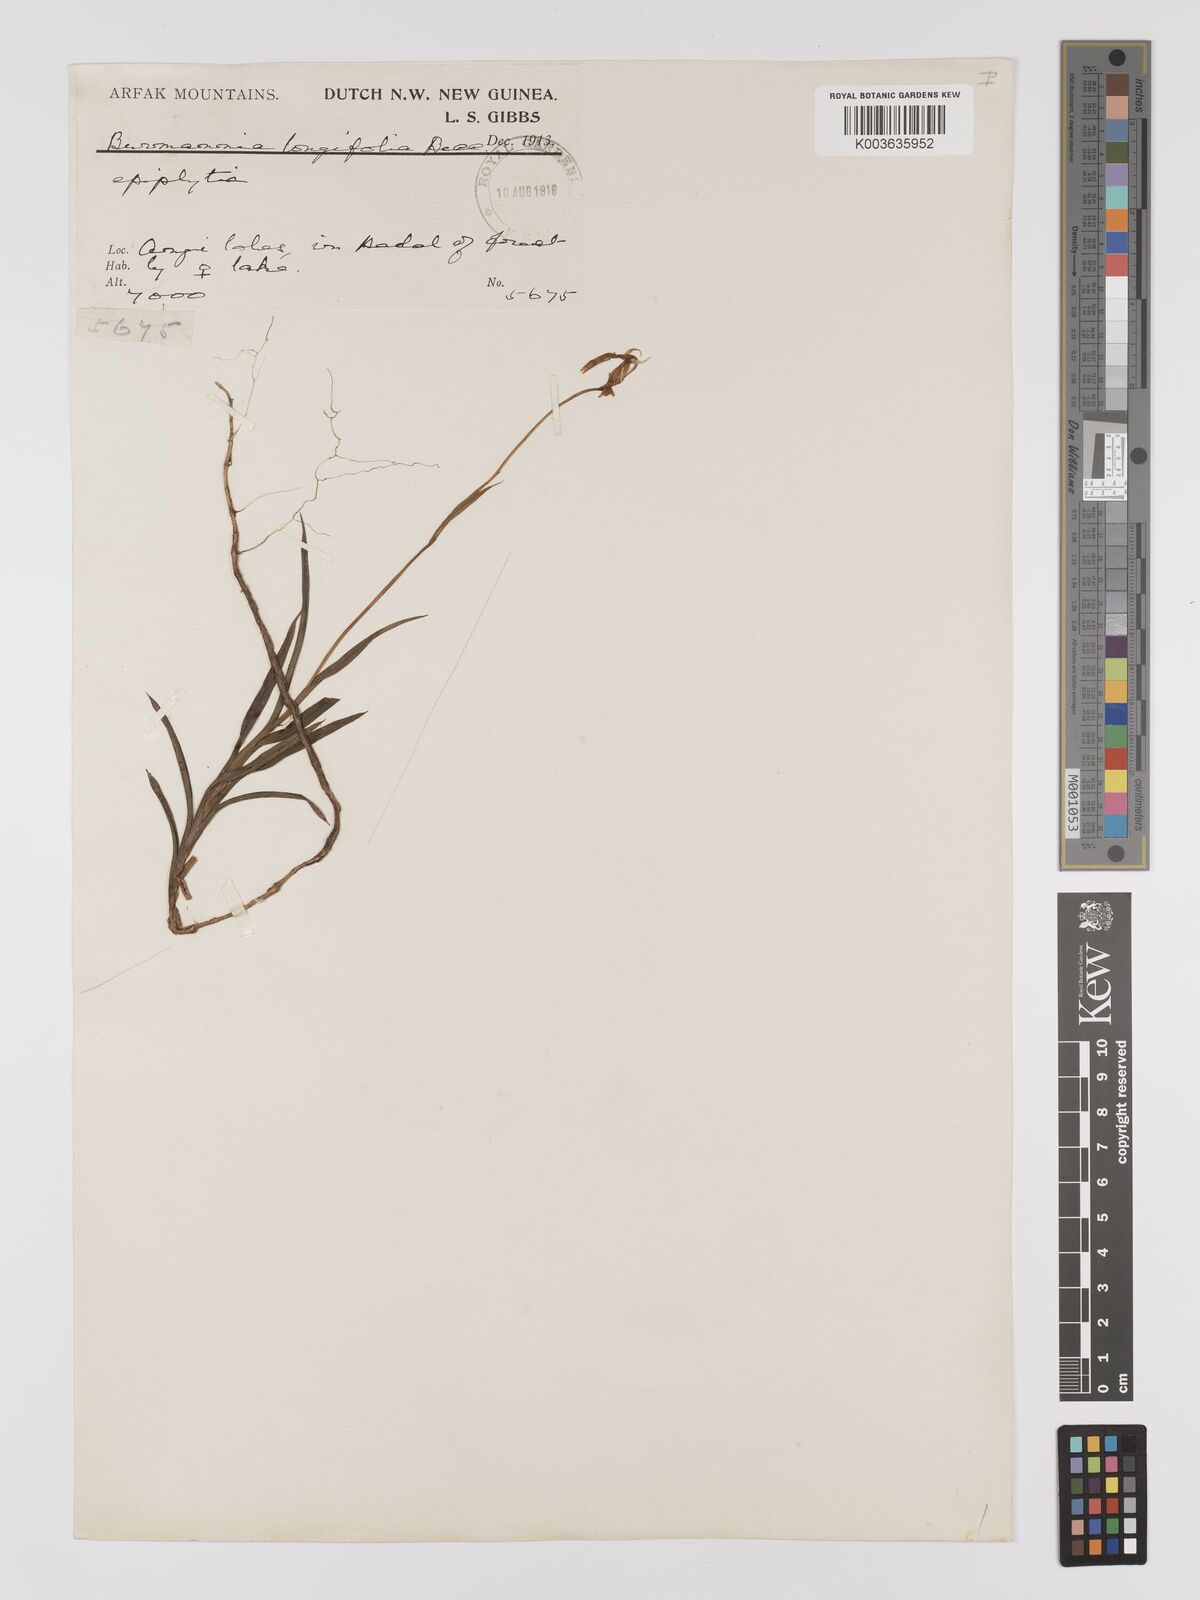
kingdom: Plantae
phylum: Tracheophyta
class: Liliopsida
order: Dioscoreales
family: Burmanniaceae
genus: Burmannia
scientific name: Burmannia longifolia
